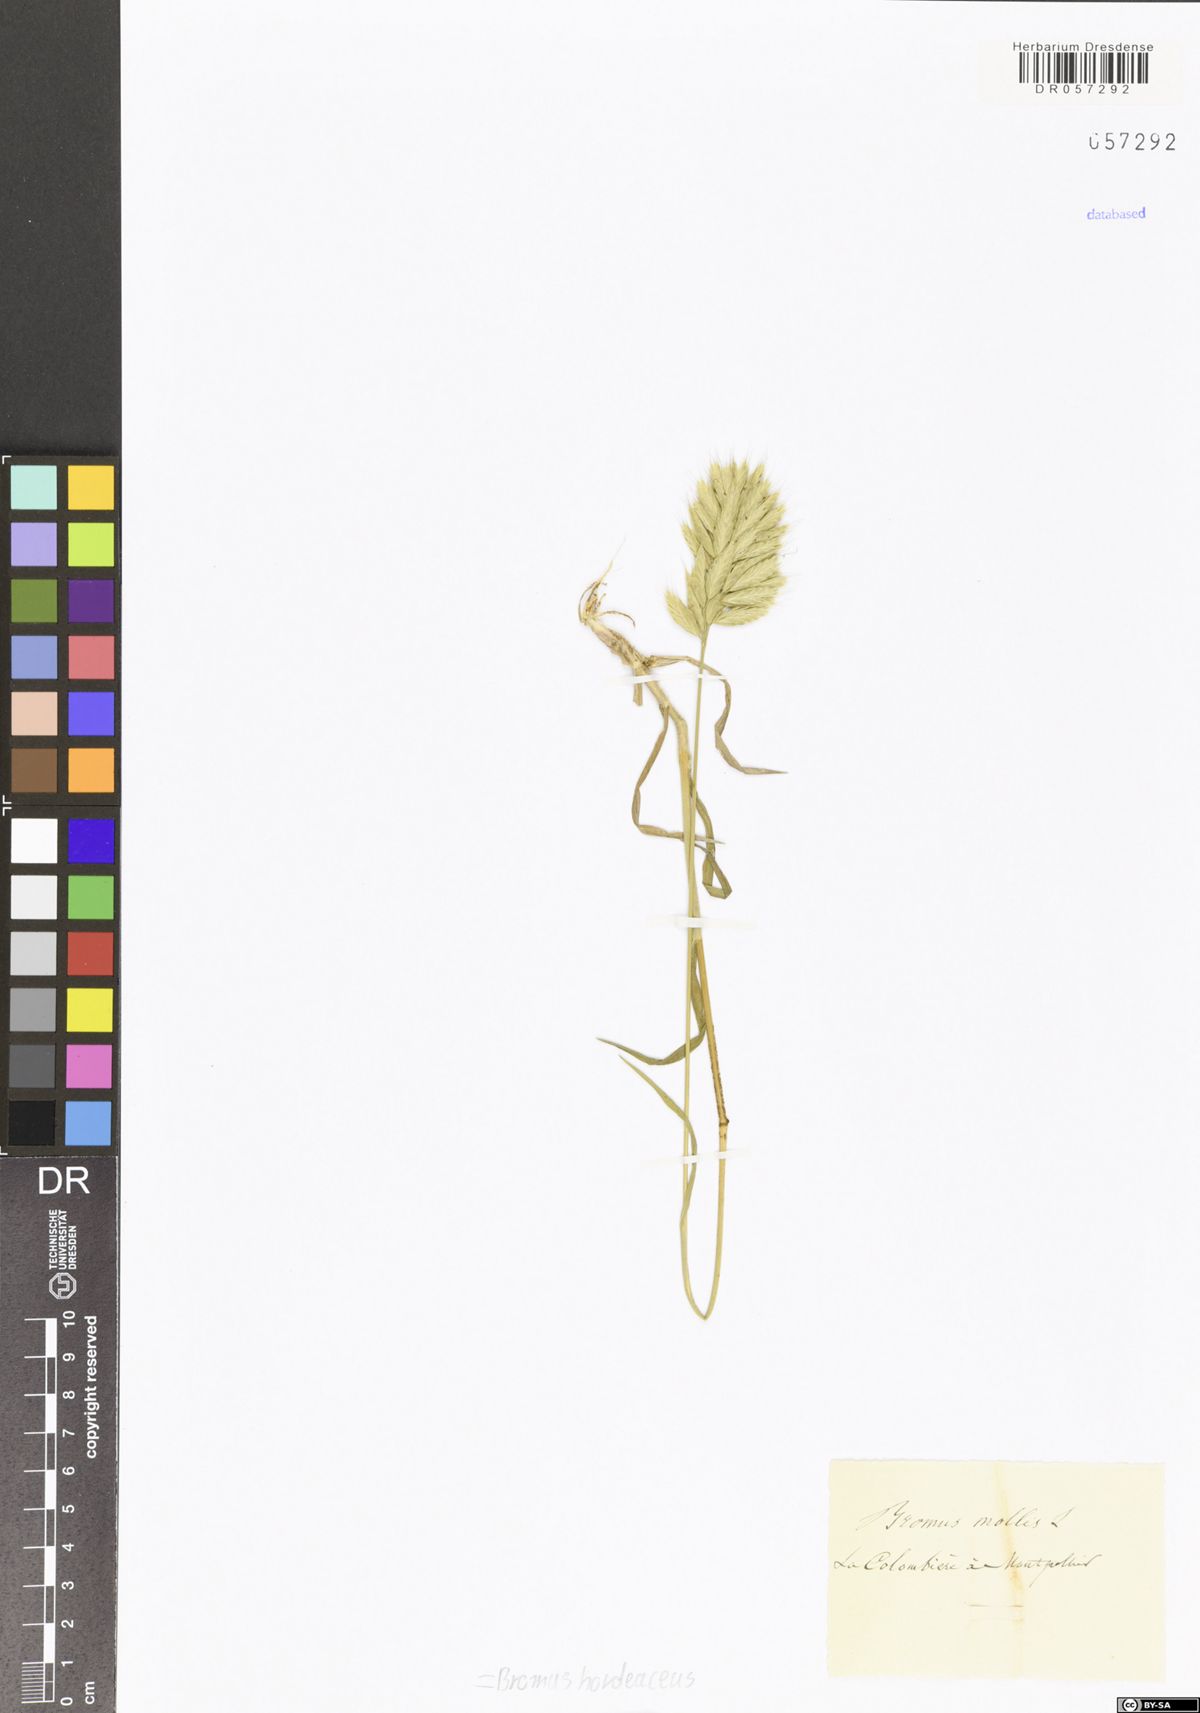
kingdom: Plantae
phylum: Tracheophyta
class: Liliopsida
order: Poales
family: Poaceae
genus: Bromus
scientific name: Bromus hordeaceus
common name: Soft brome
